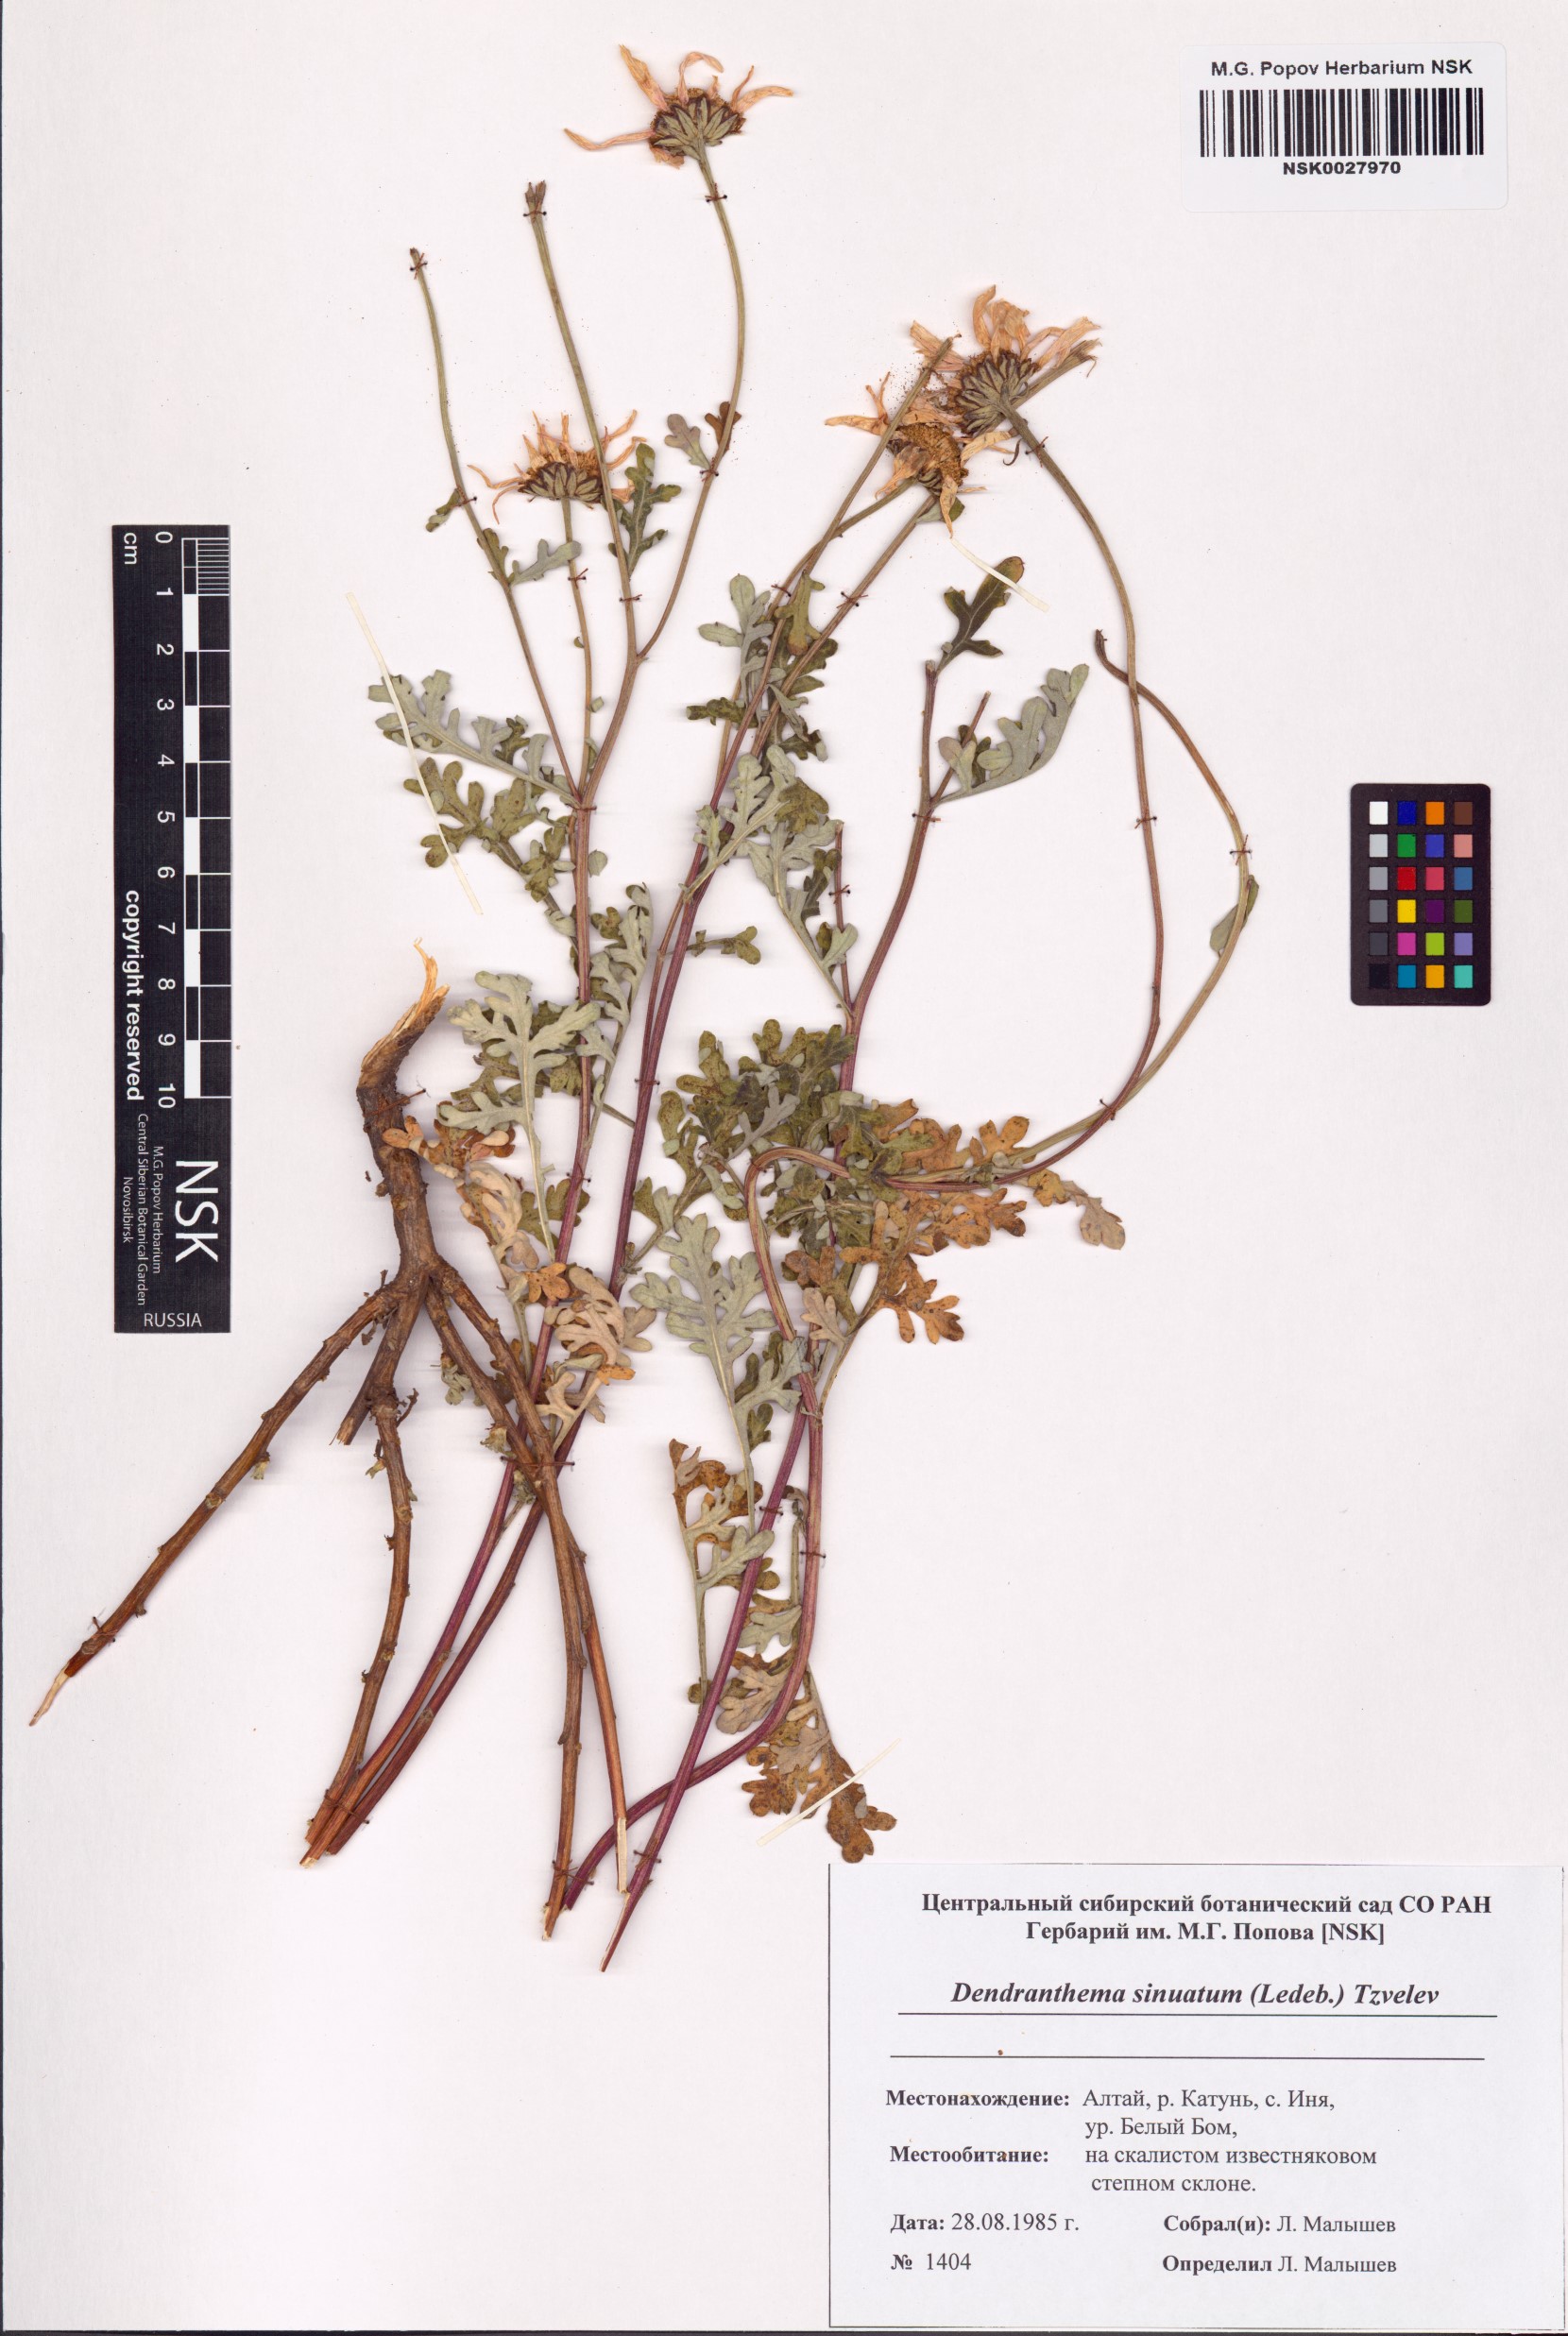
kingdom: Plantae
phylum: Tracheophyta
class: Magnoliopsida
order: Asterales
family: Asteraceae
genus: Chrysanthemum
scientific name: Chrysanthemum sinuatum
